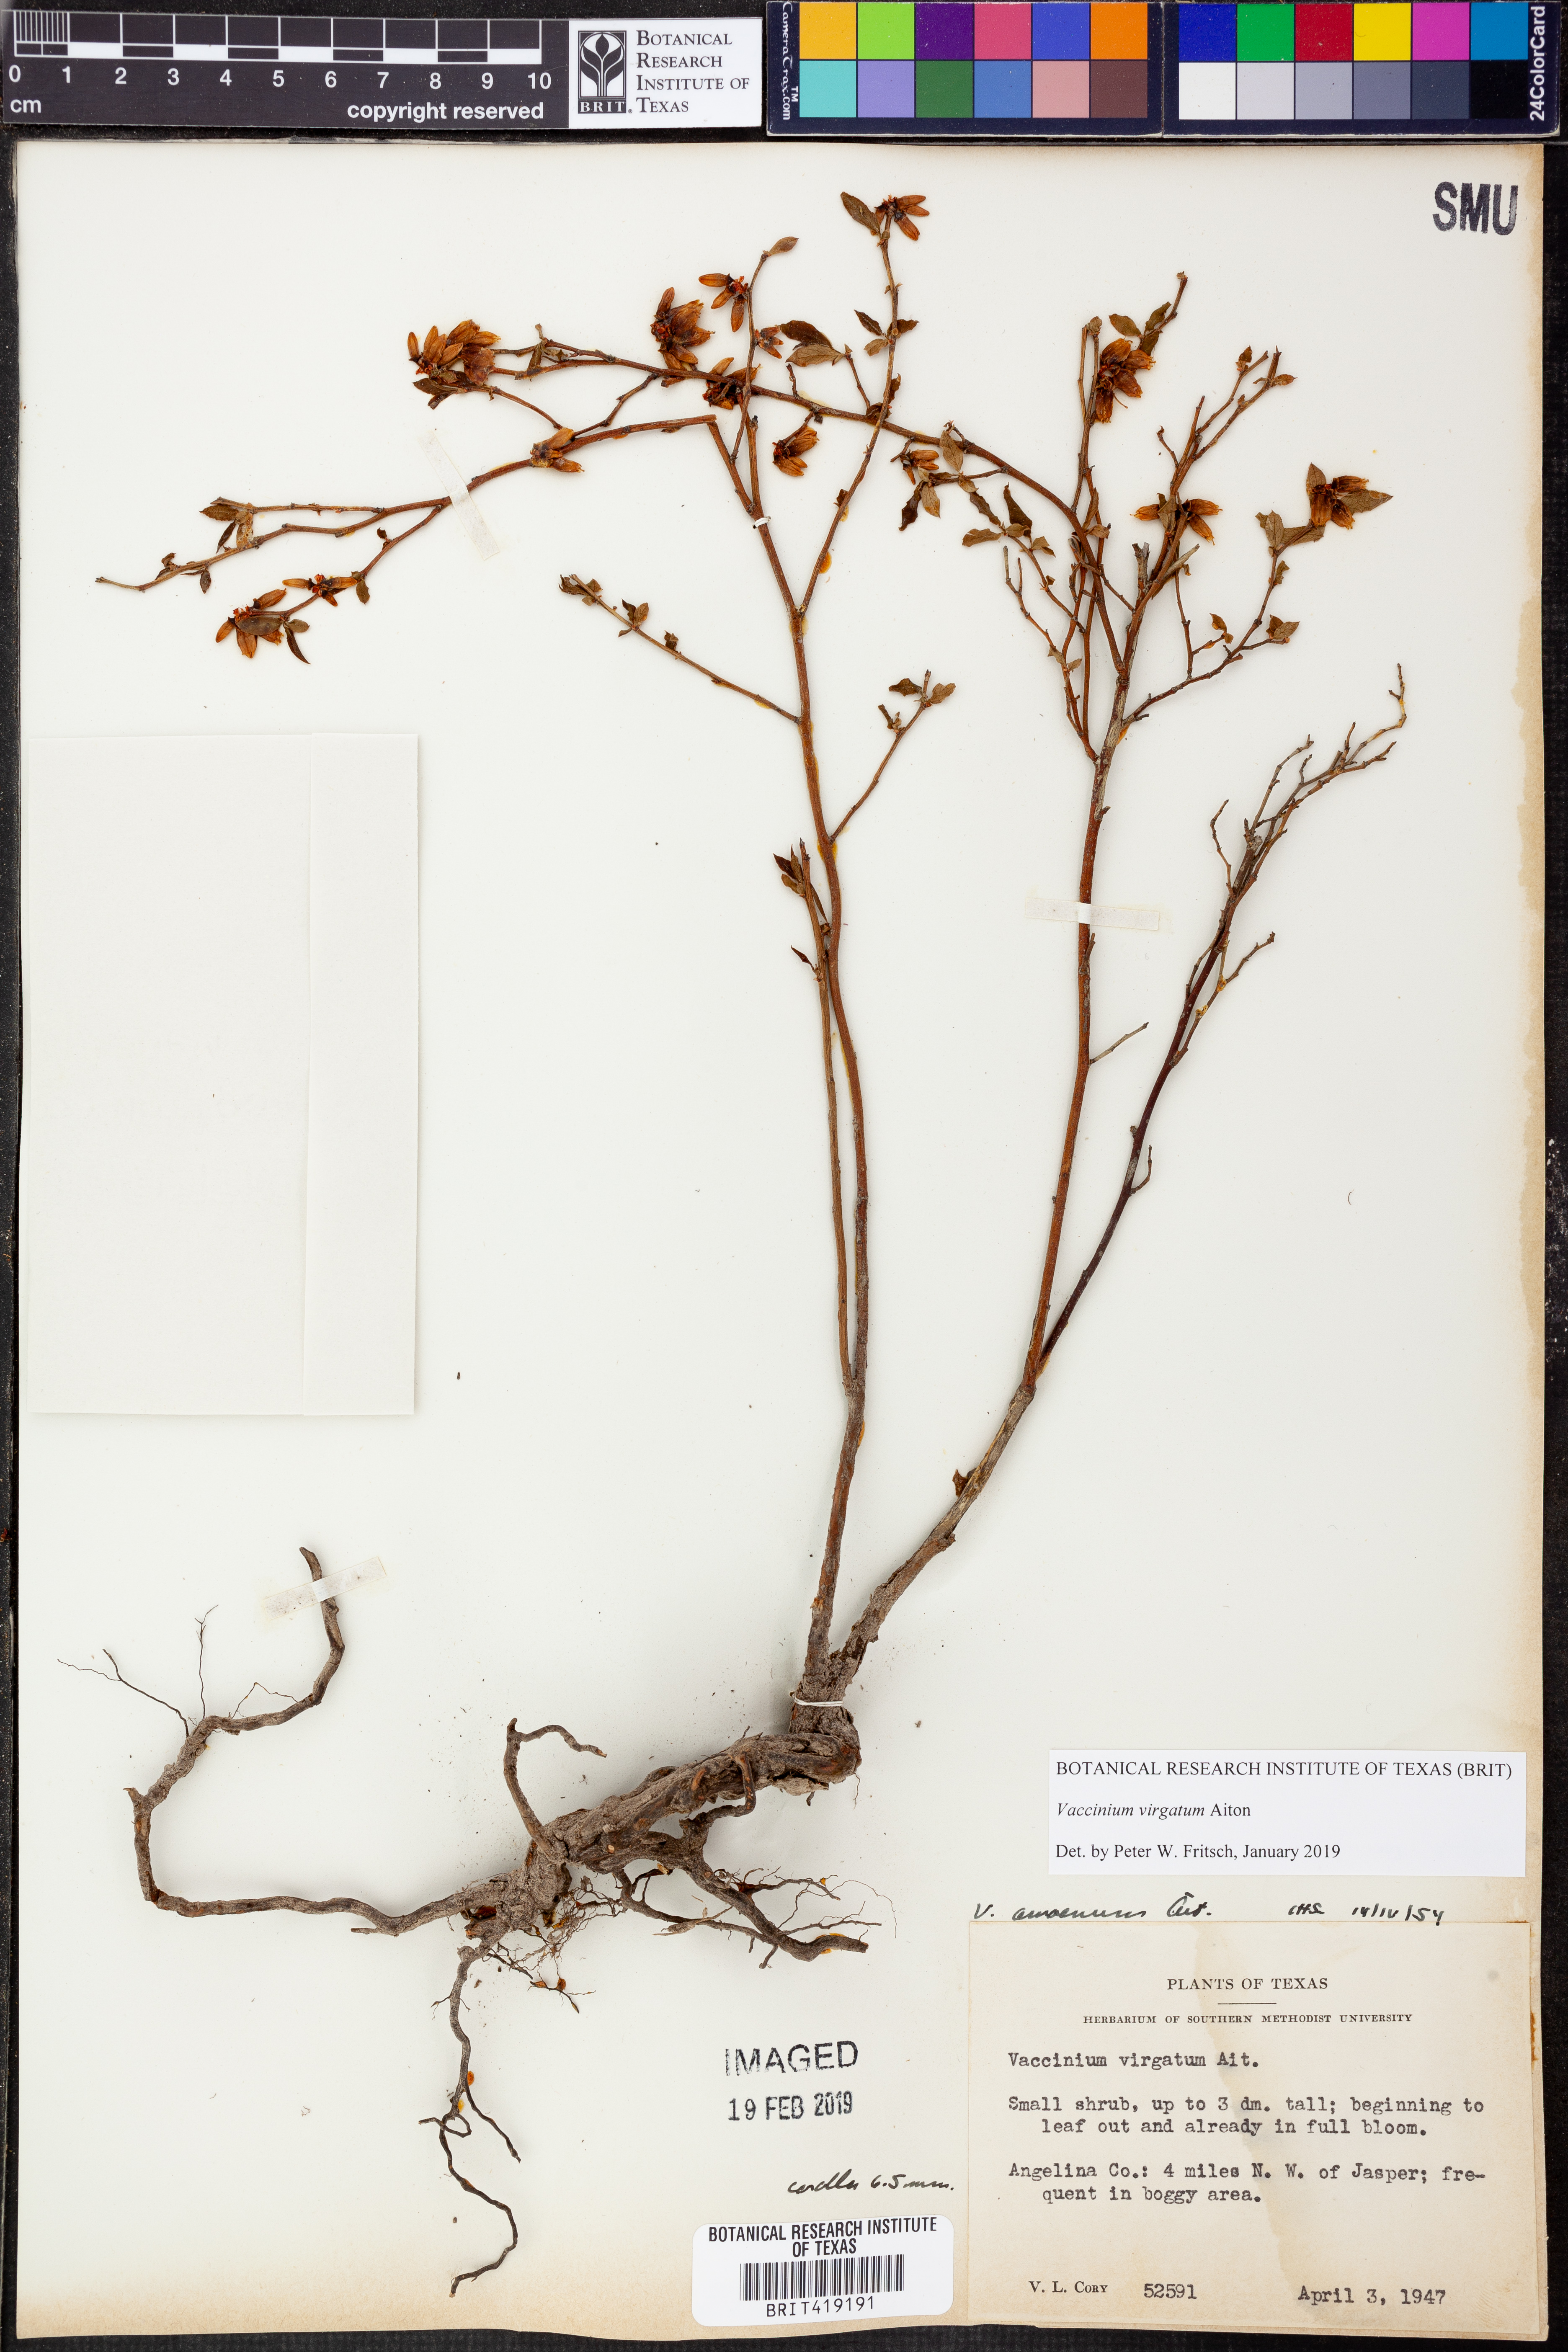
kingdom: Plantae
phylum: Tracheophyta
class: Magnoliopsida
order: Ericales
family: Ericaceae
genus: Vaccinium
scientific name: Vaccinium corymbosum
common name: Blueberry
